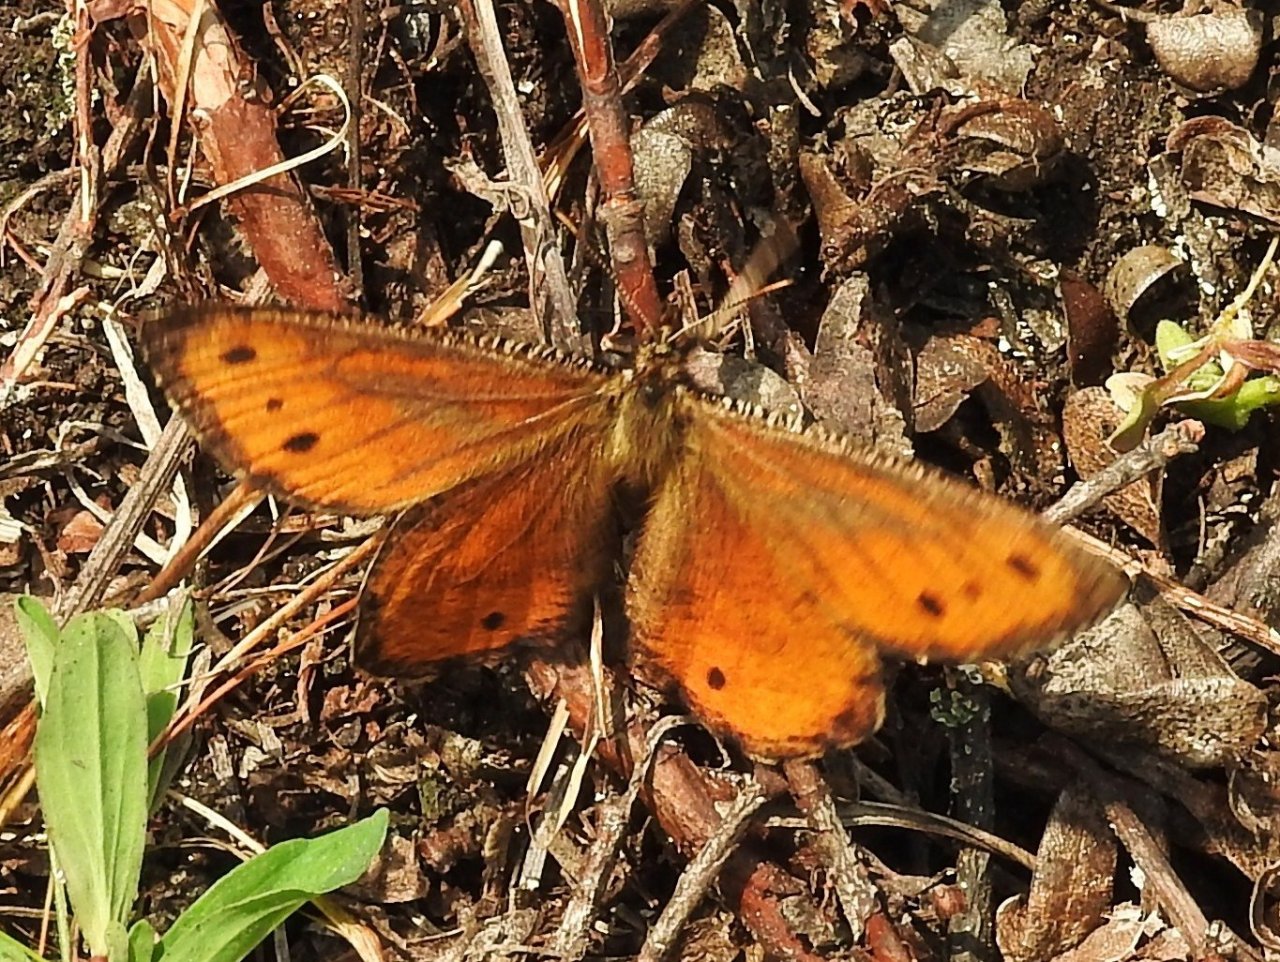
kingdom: Animalia
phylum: Arthropoda
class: Insecta
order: Lepidoptera
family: Nymphalidae
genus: Oeneis
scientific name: Oeneis chryxus
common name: Chryxus Arctic
